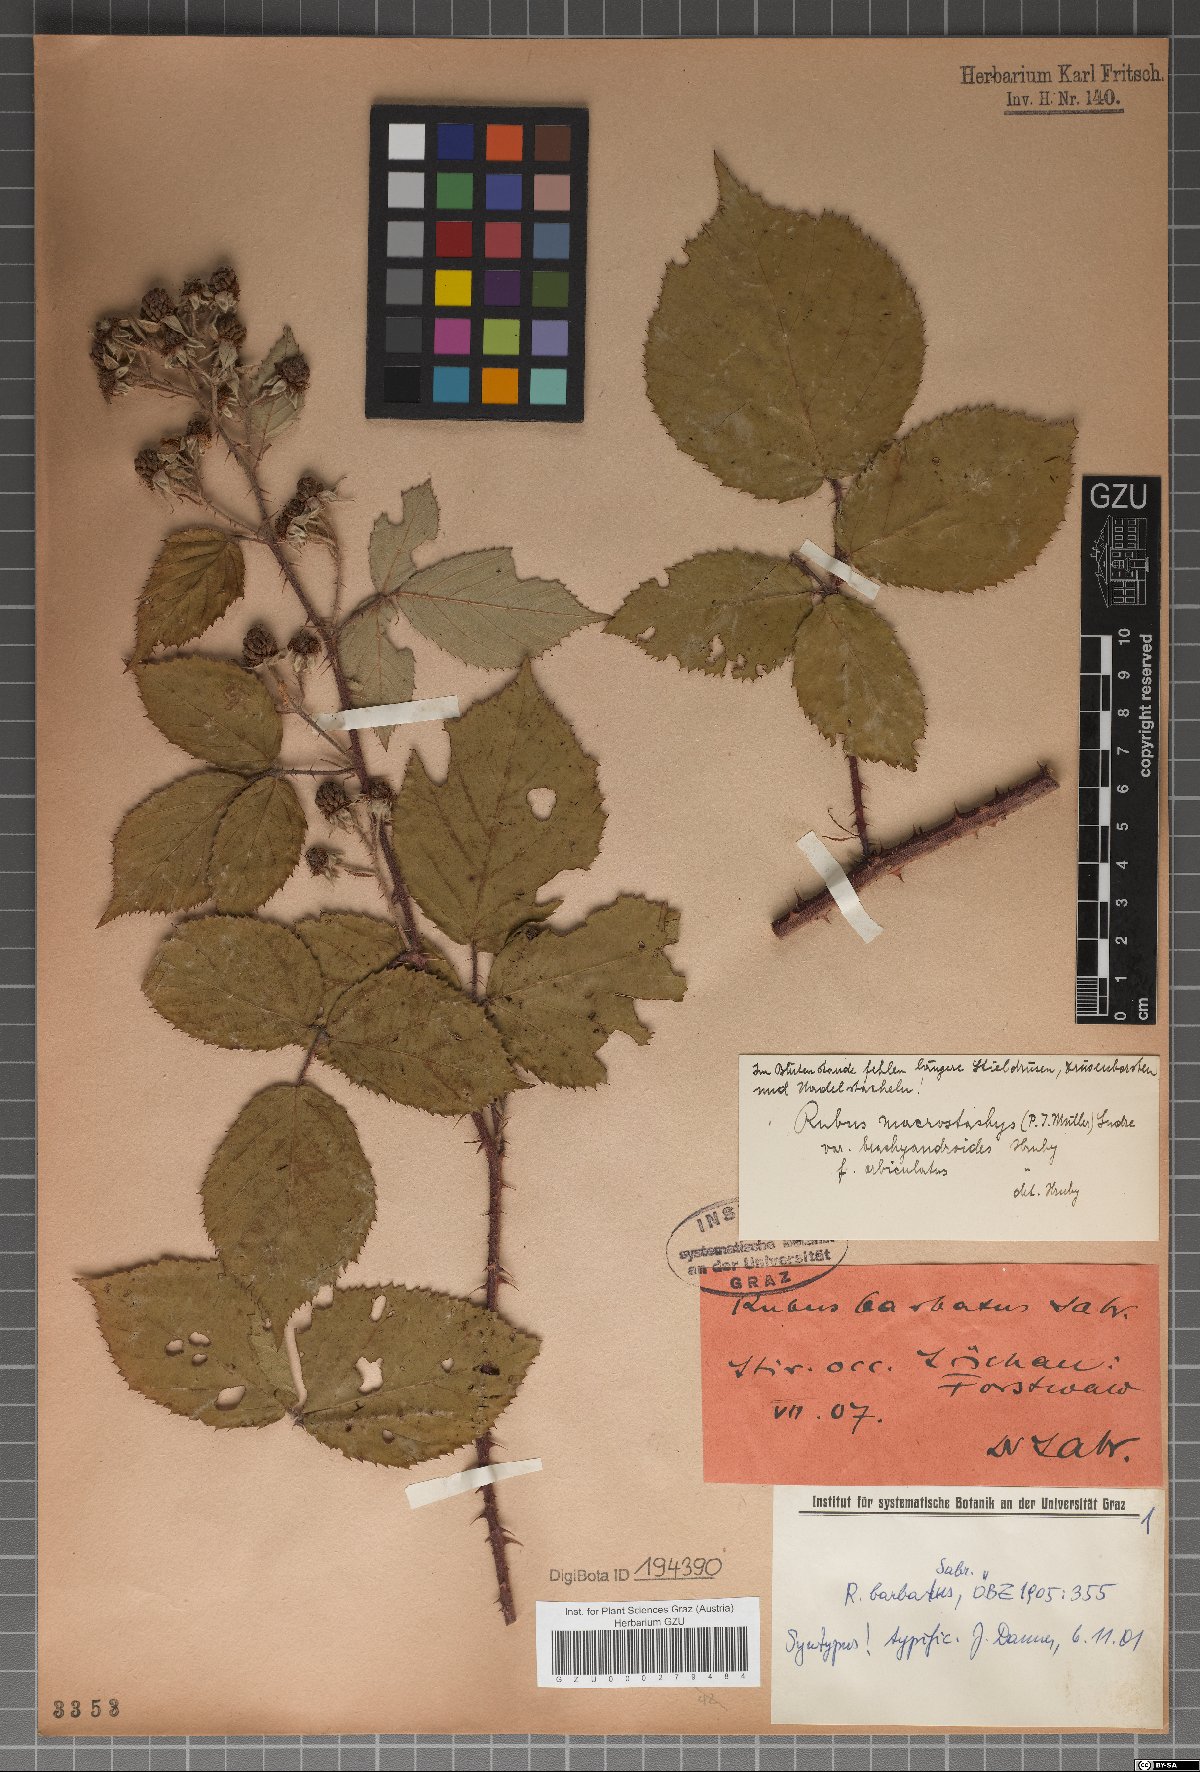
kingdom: Plantae
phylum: Tracheophyta
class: Magnoliopsida
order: Rosales
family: Rosaceae
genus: Rubus
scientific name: Rubus insericatus
